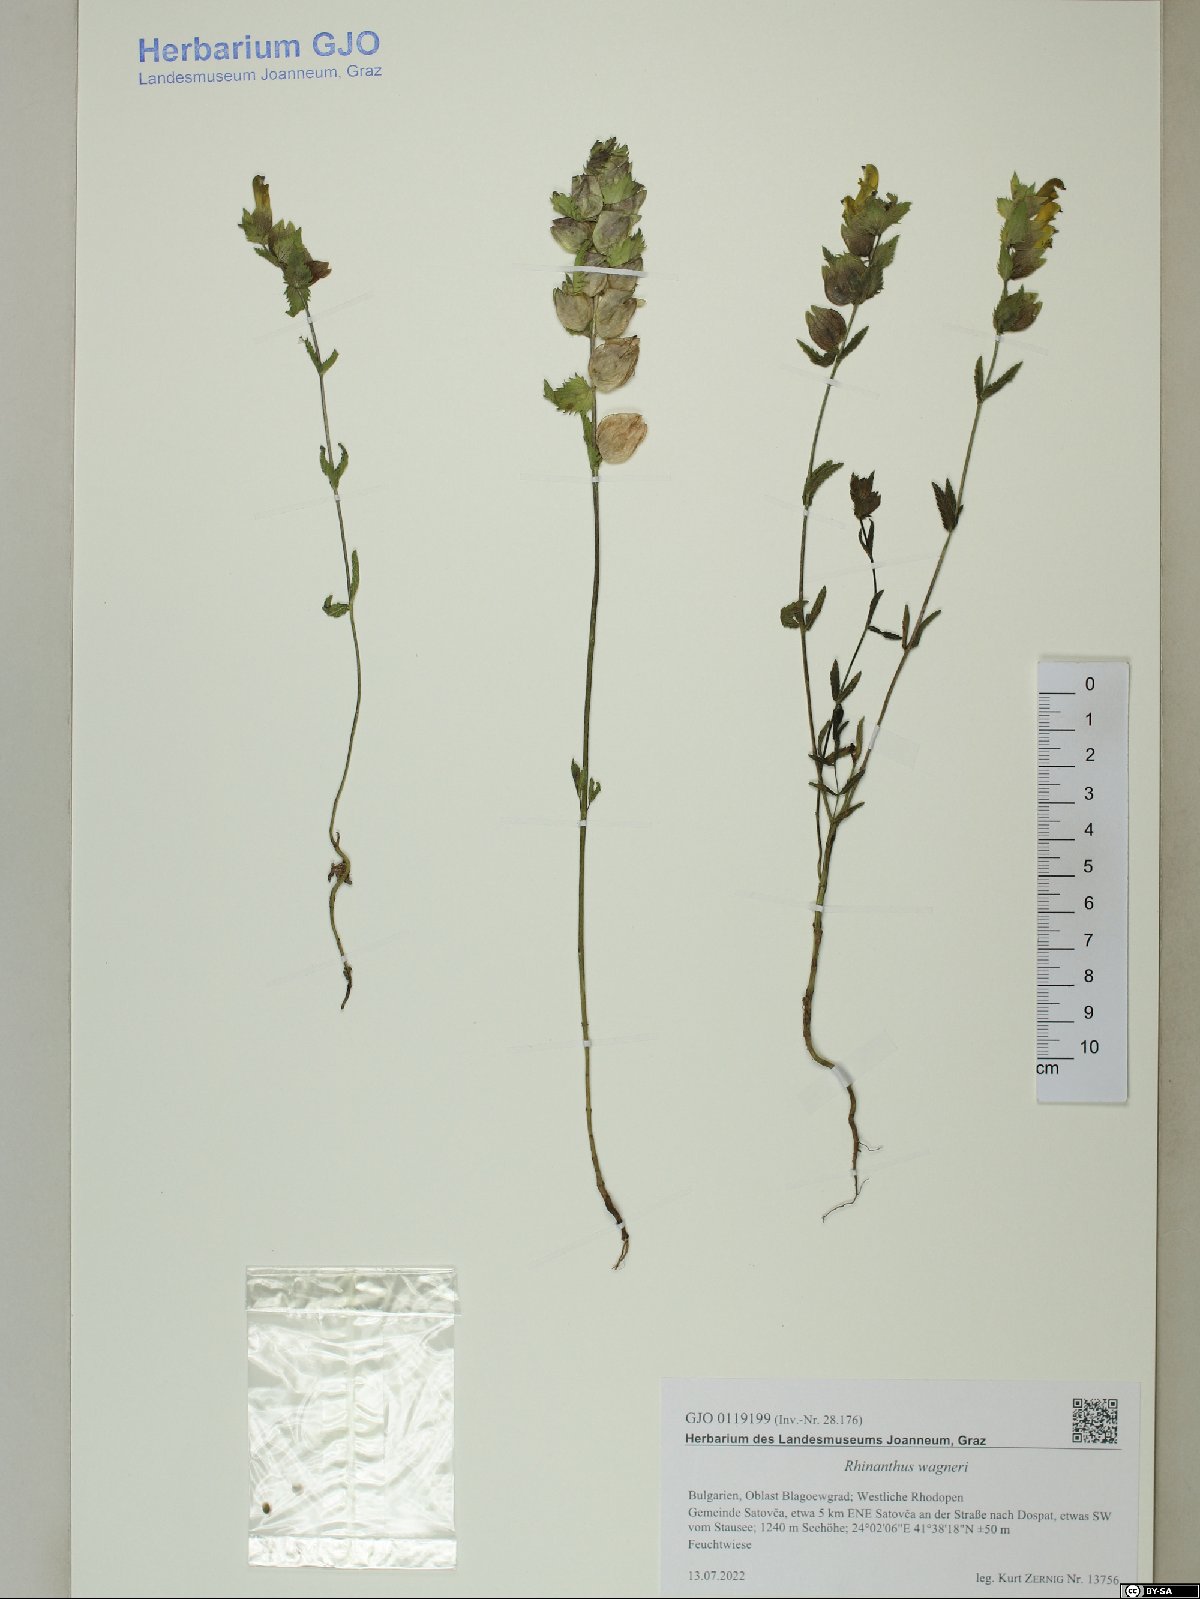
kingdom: Plantae
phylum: Tracheophyta
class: Magnoliopsida
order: Lamiales
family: Scrophulariaceae
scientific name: Scrophulariaceae
